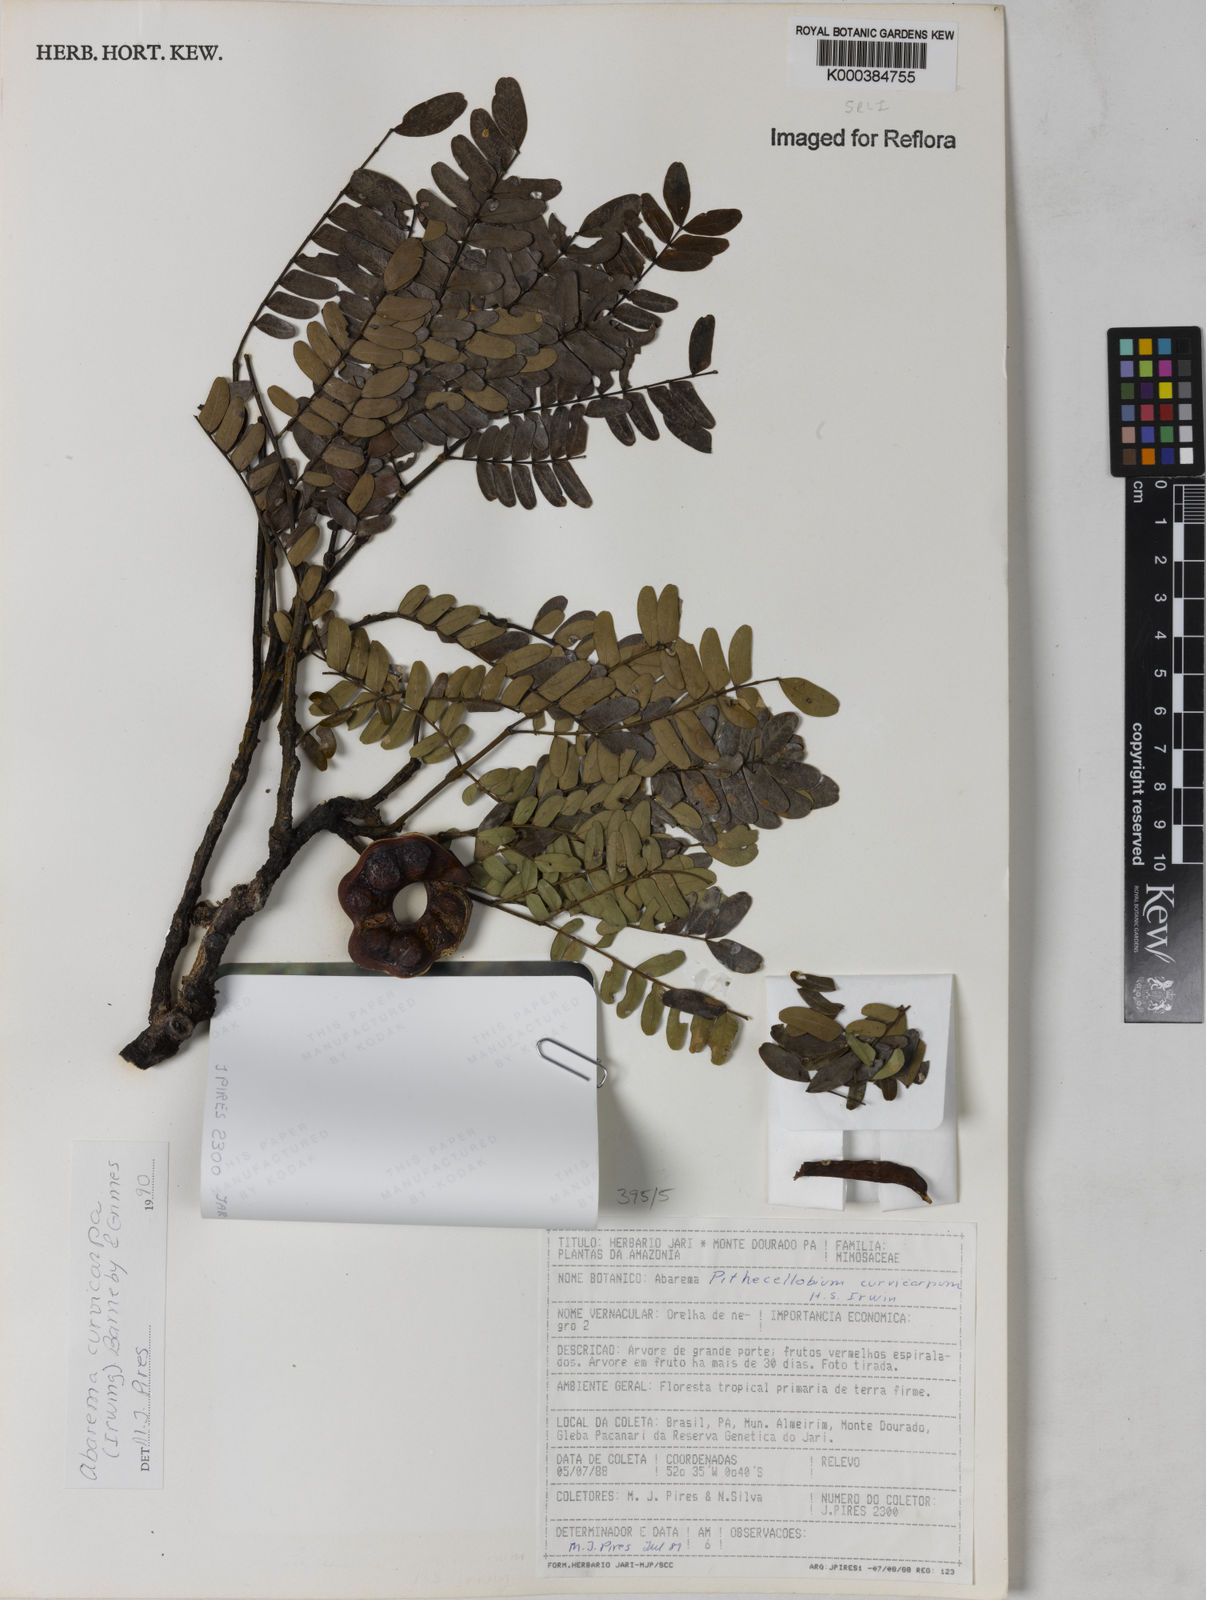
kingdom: Plantae
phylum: Tracheophyta
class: Magnoliopsida
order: Fabales
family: Fabaceae
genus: Jupunba
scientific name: Jupunba curvicarpa
